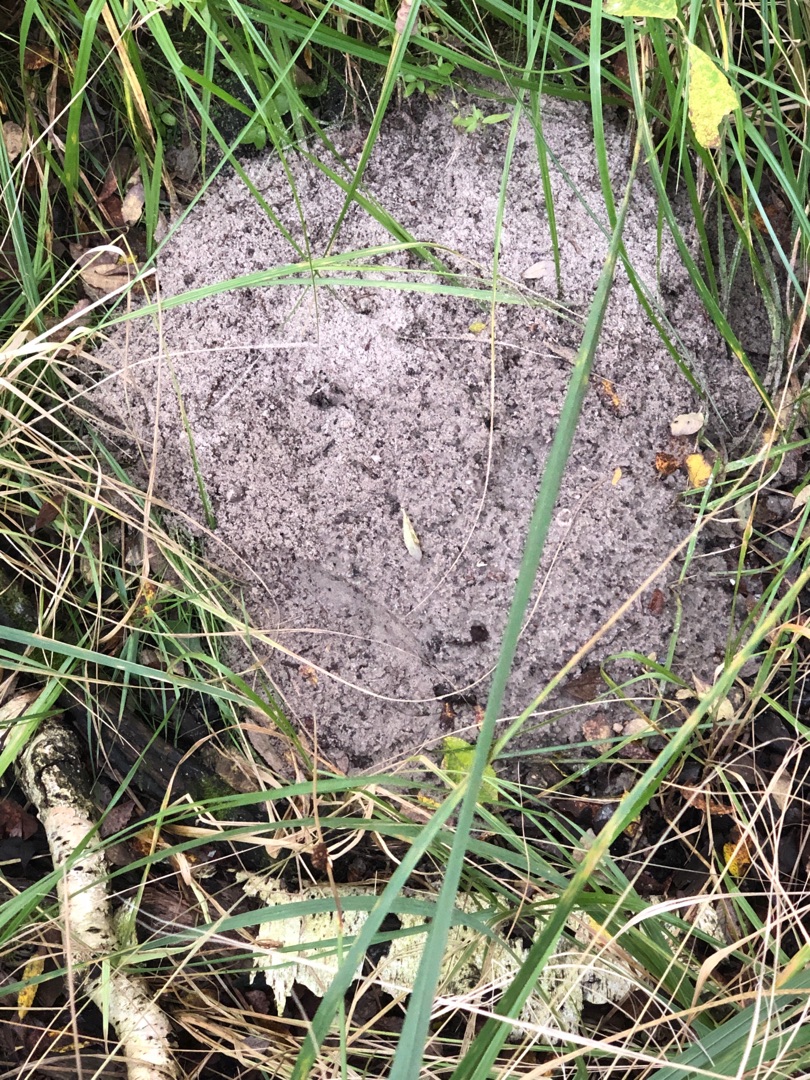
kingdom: Animalia
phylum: Chordata
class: Mammalia
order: Soricomorpha
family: Talpidae
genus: Talpa
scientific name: Talpa europaea
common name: Muldvarp
